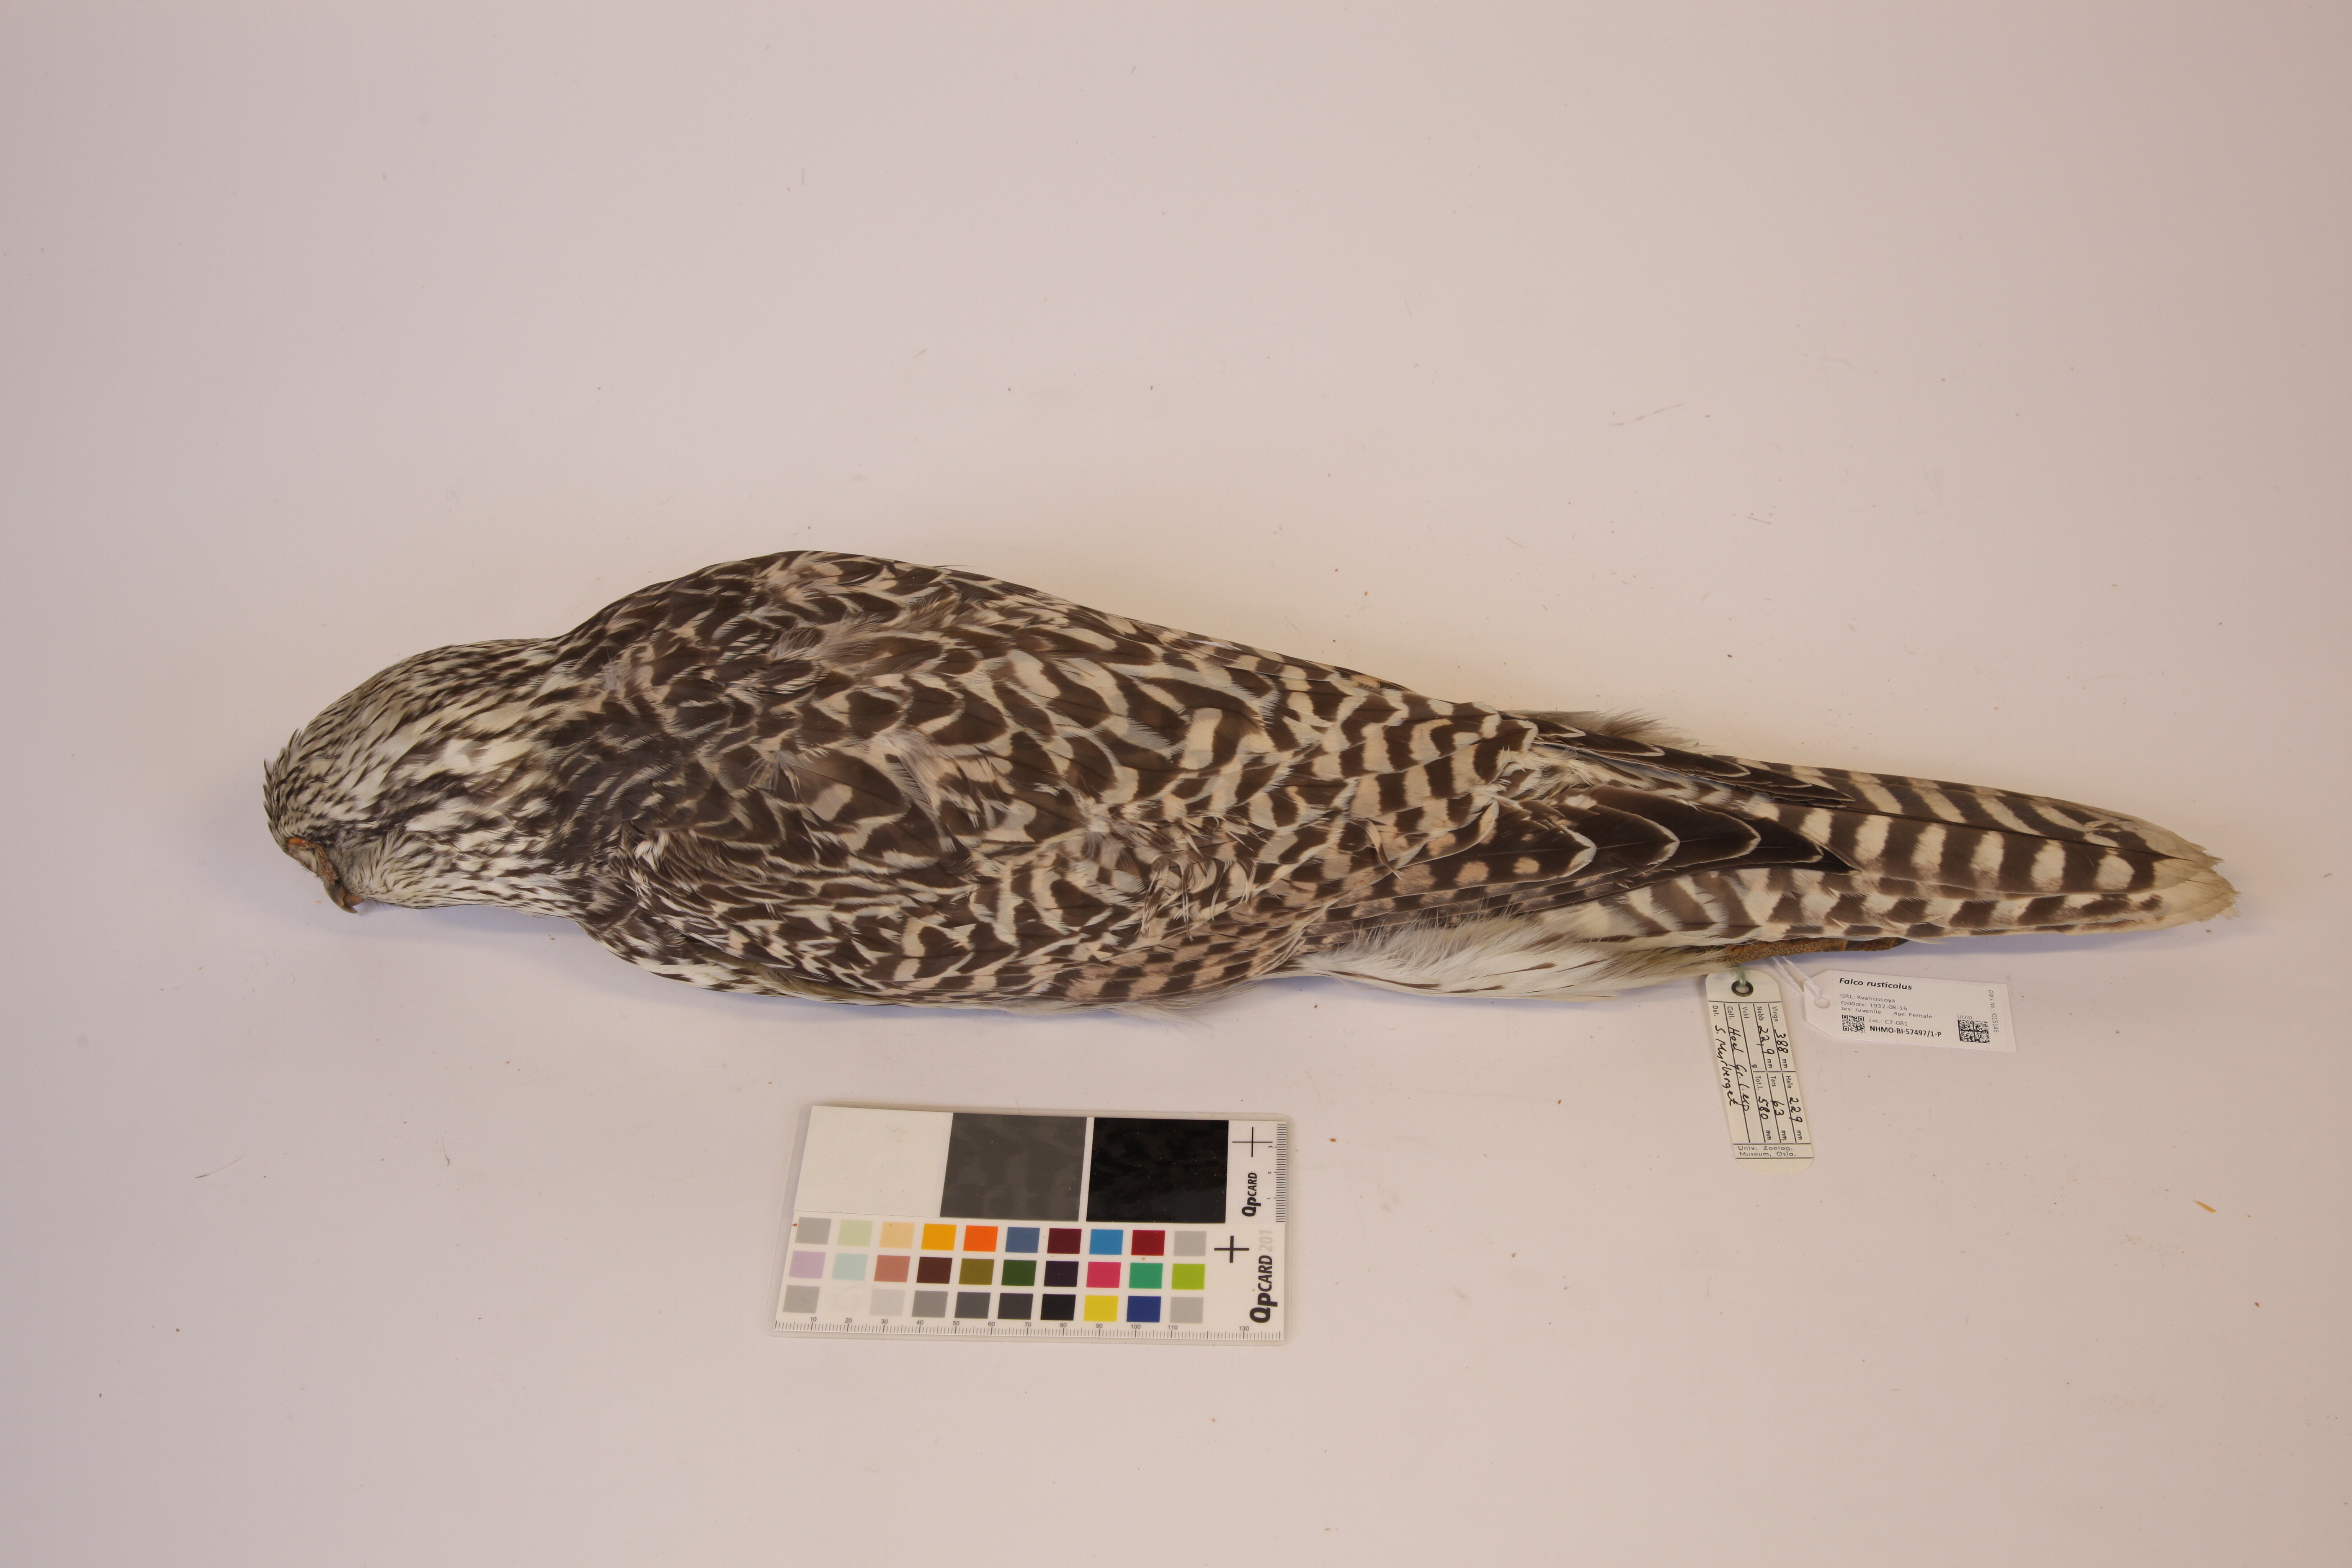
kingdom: Animalia
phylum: Chordata
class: Aves
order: Falconiformes
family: Falconidae
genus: Falco
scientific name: Falco rusticolus
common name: Gyrfalcon
